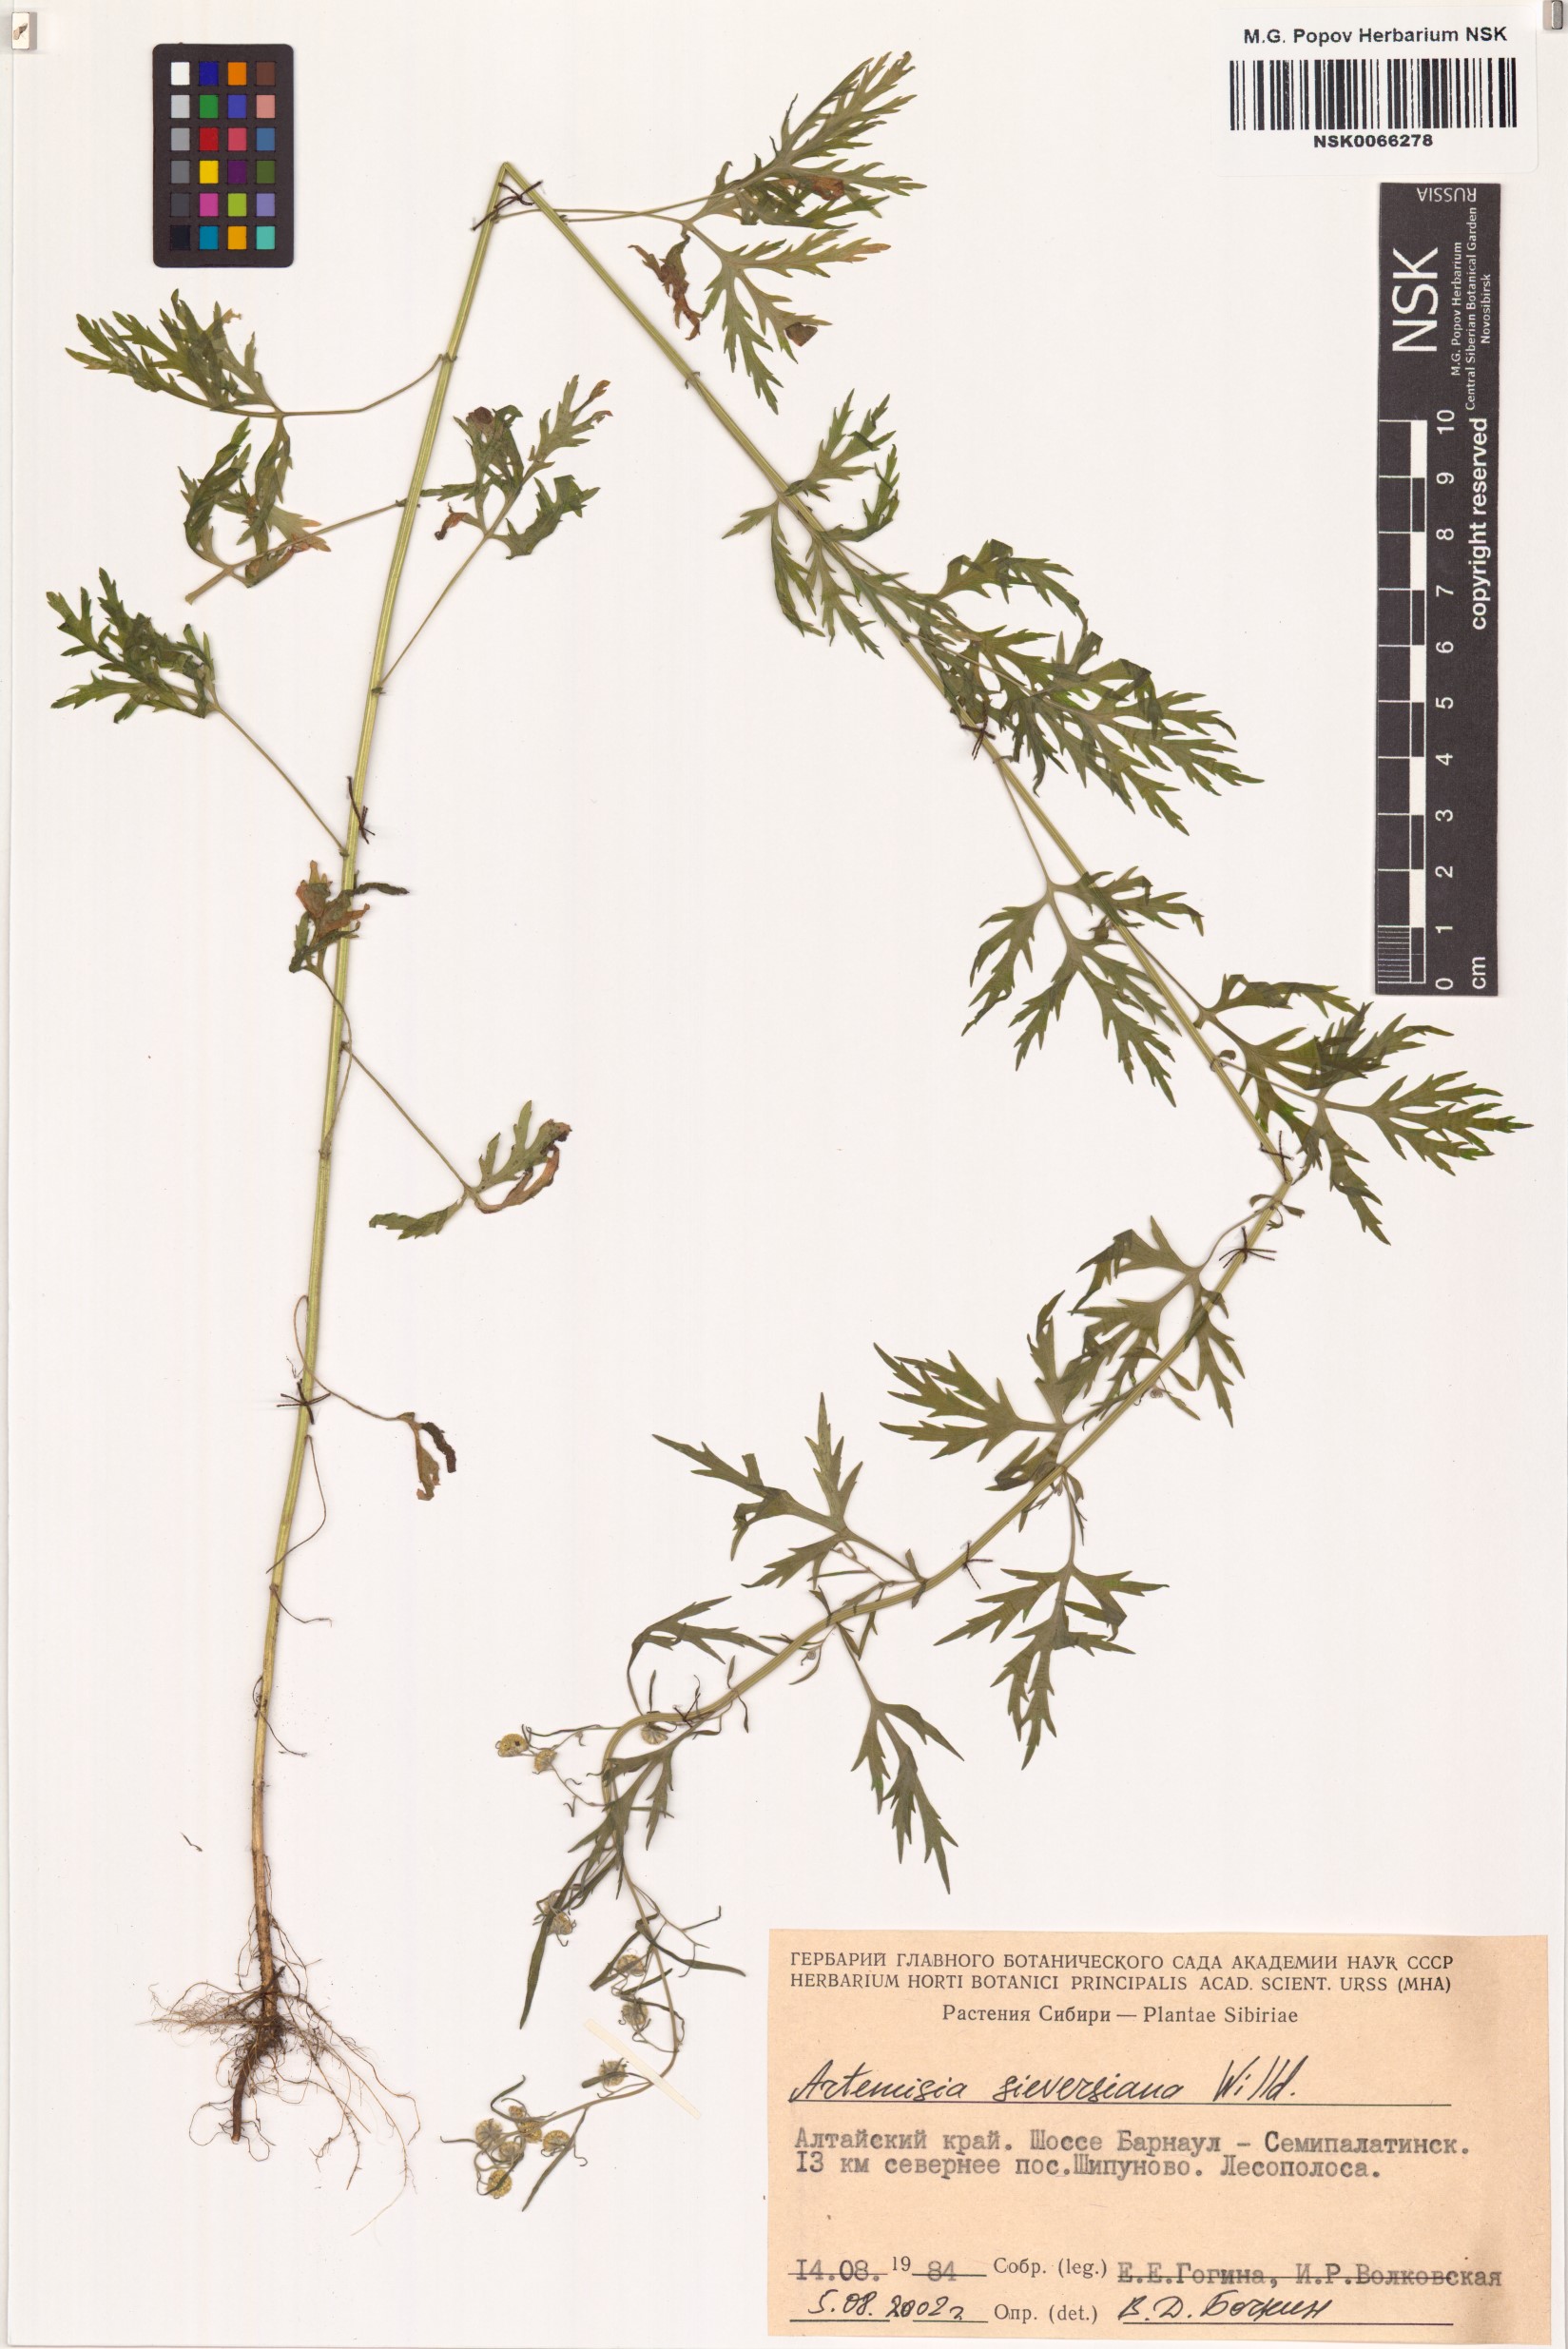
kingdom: Plantae
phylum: Tracheophyta
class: Magnoliopsida
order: Asterales
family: Asteraceae
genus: Artemisia
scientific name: Artemisia sieversiana
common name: Sieversian wormwood
